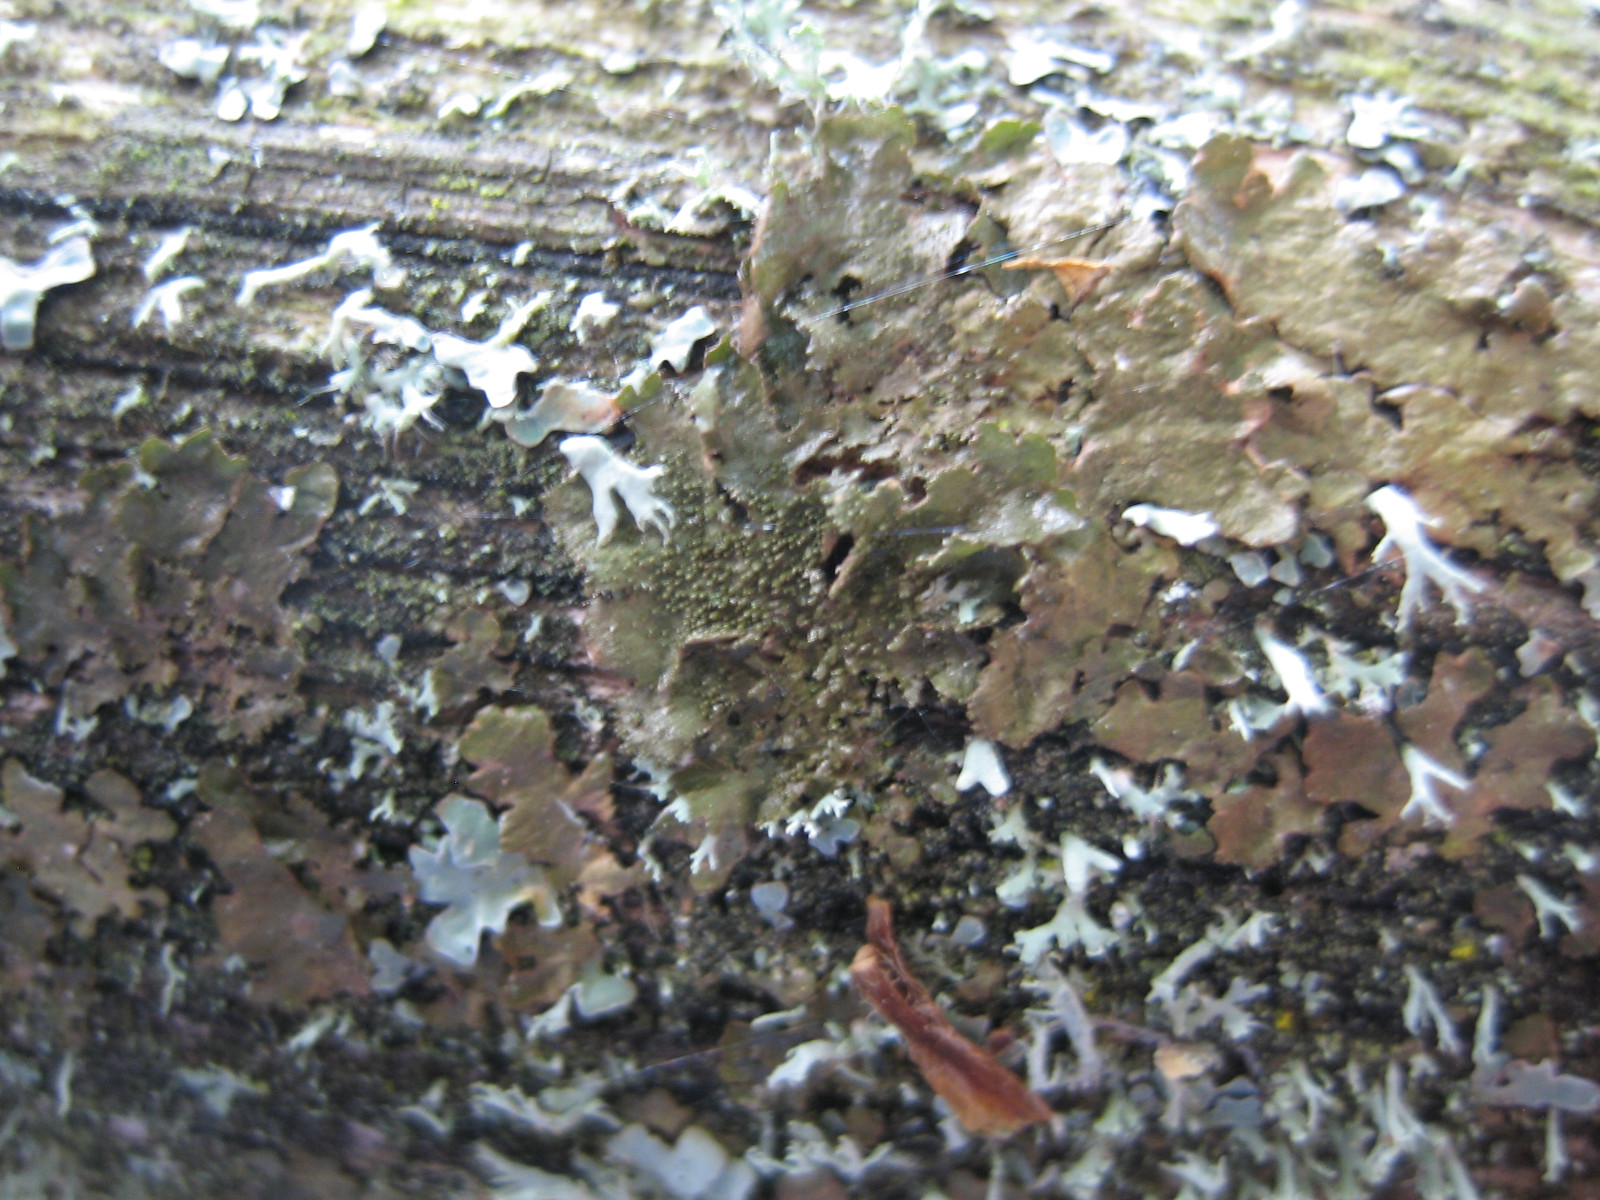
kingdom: Fungi
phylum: Ascomycota
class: Lecanoromycetes
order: Lecanorales
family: Parmeliaceae
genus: Melanohalea
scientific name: Melanohalea exasperatula
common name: kølle-skållav
